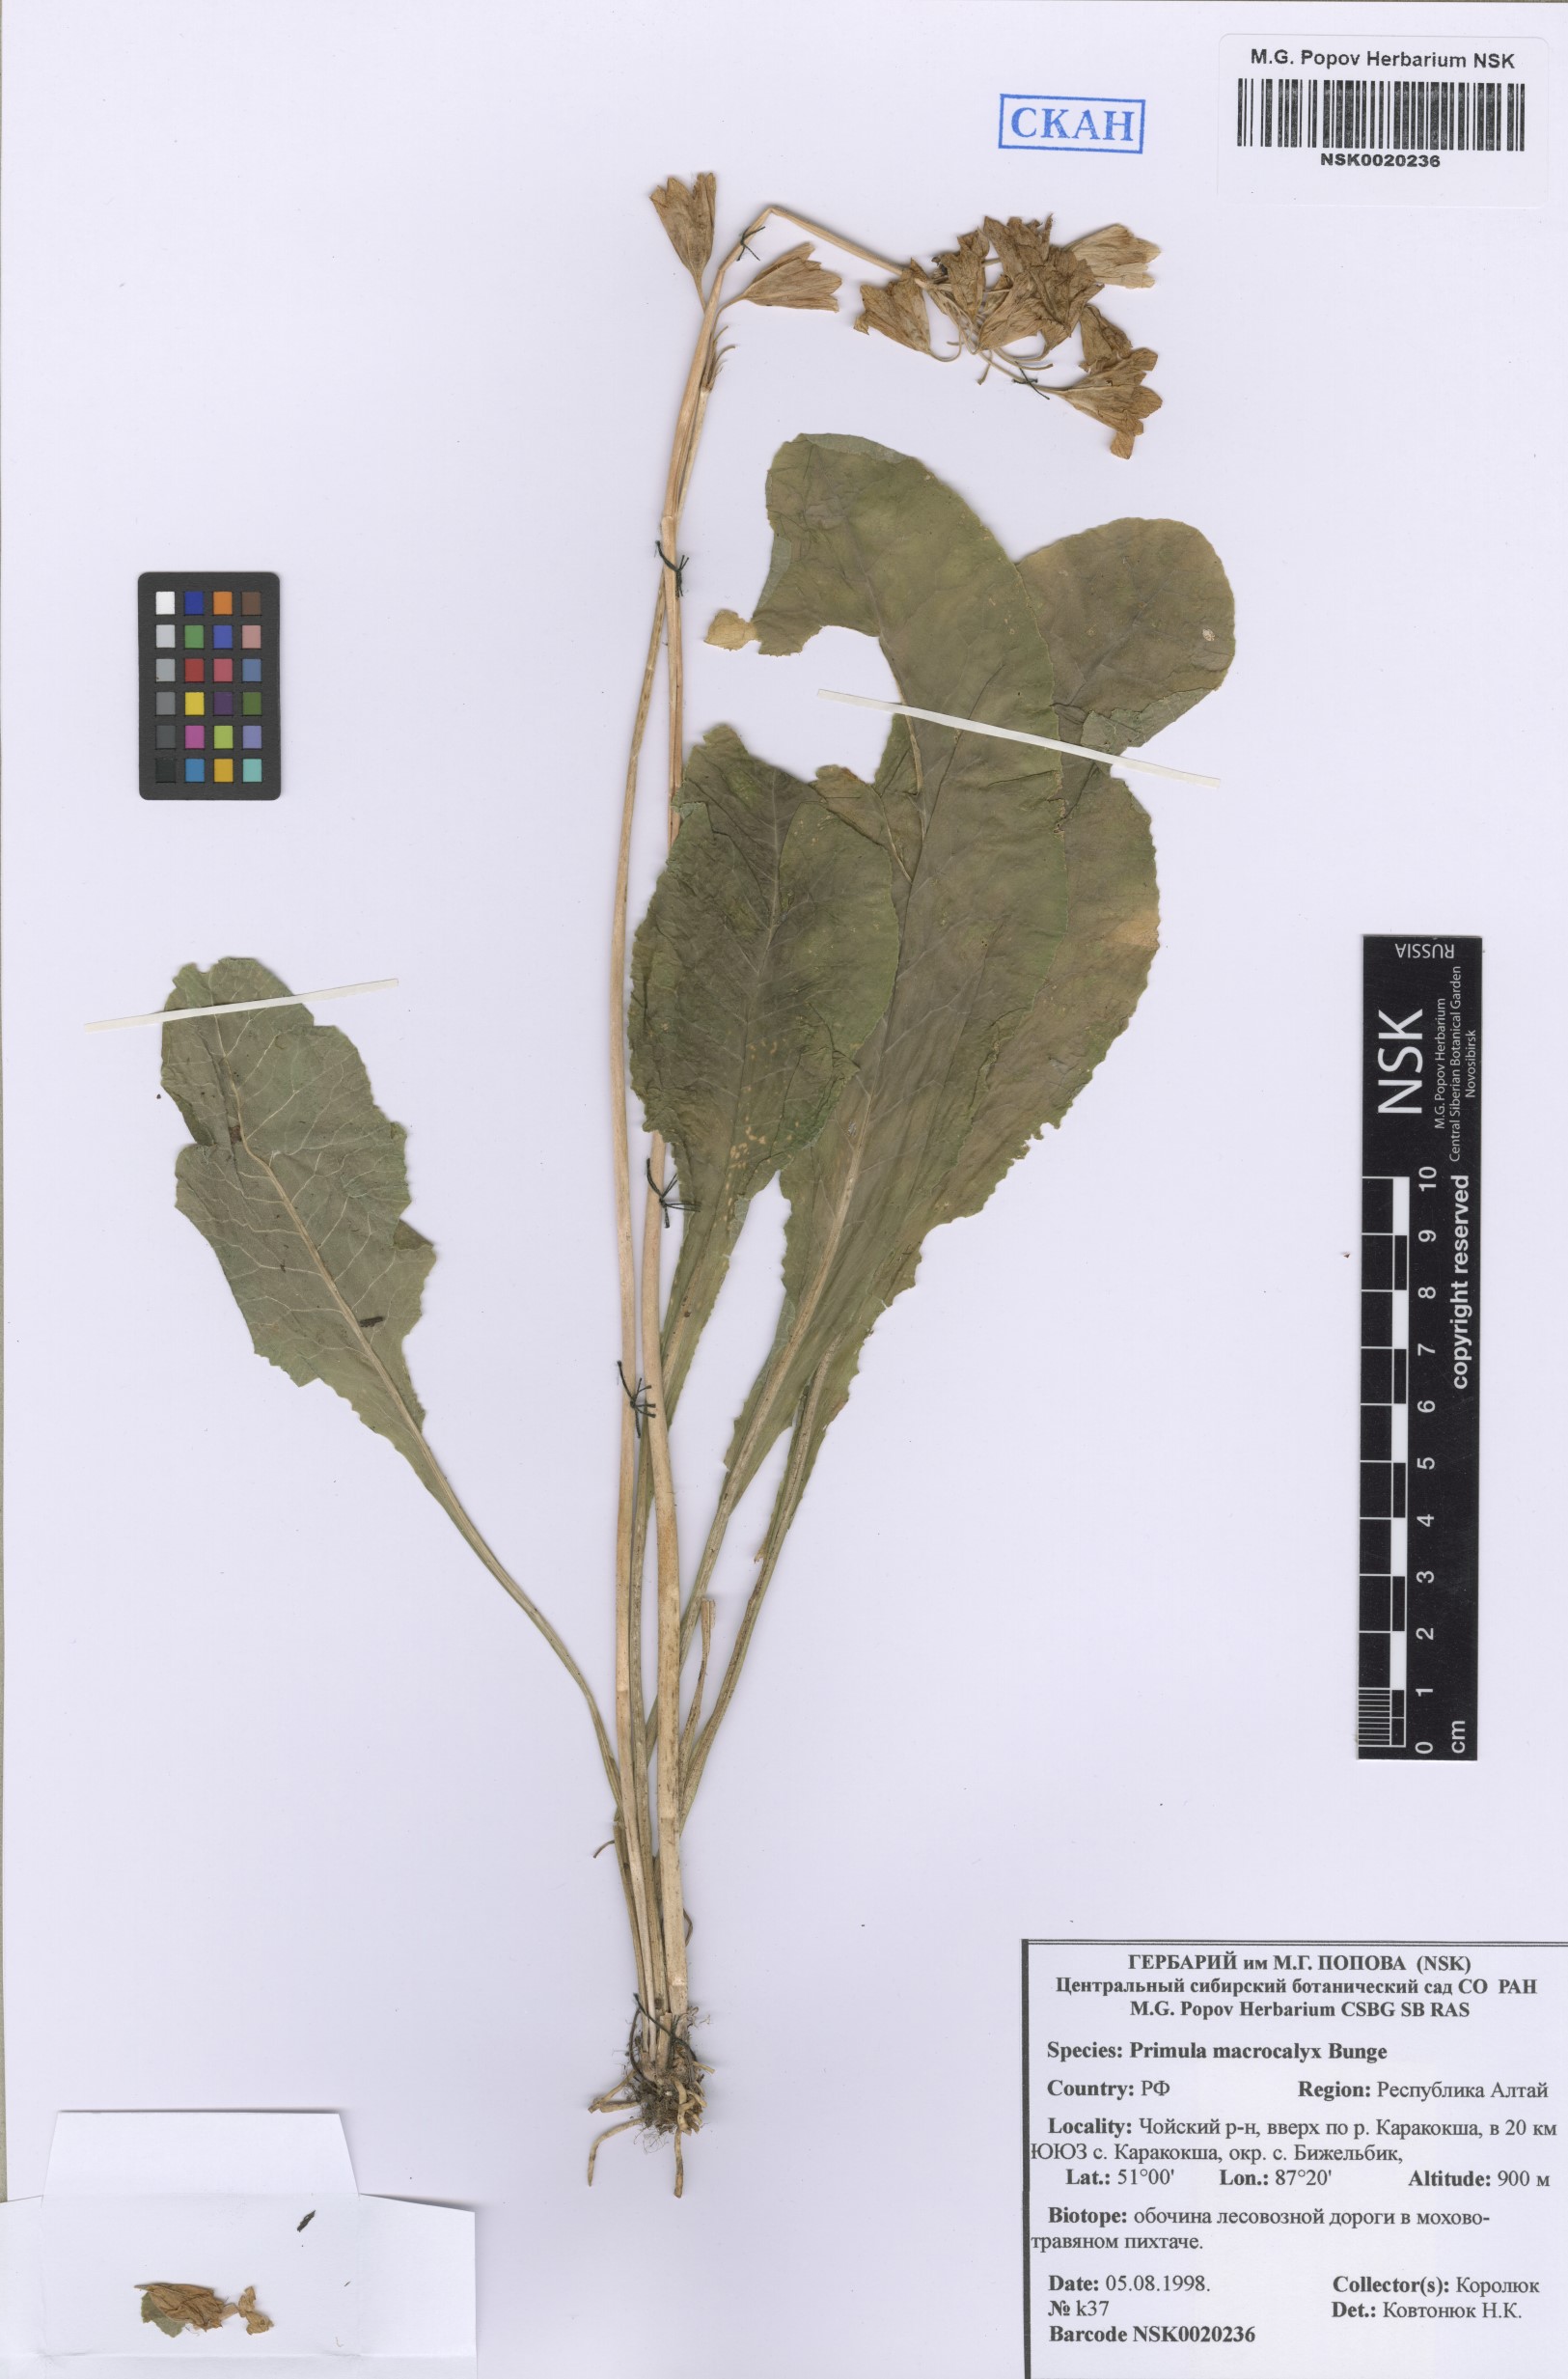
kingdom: Plantae
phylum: Tracheophyta
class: Magnoliopsida
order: Ericales
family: Primulaceae
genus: Primula
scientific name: Primula veris
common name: Cowslip
